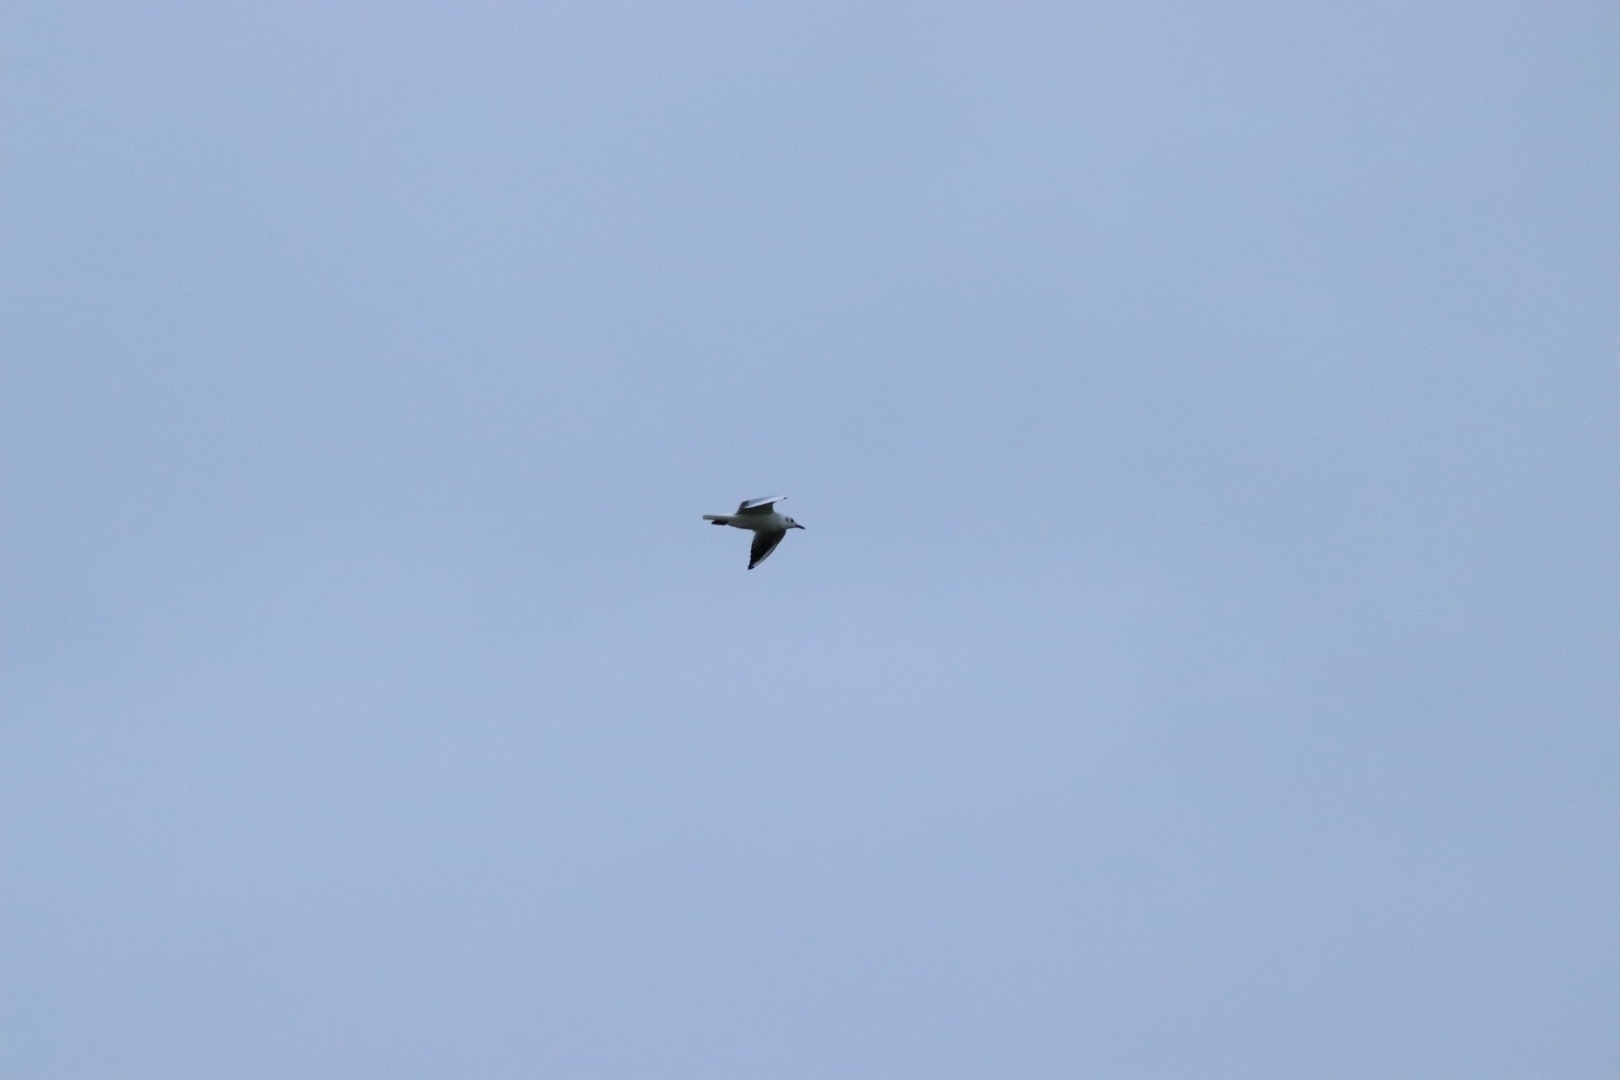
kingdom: Animalia
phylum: Chordata
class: Aves
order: Charadriiformes
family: Laridae
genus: Chroicocephalus
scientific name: Chroicocephalus ridibundus
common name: Hættemåge
